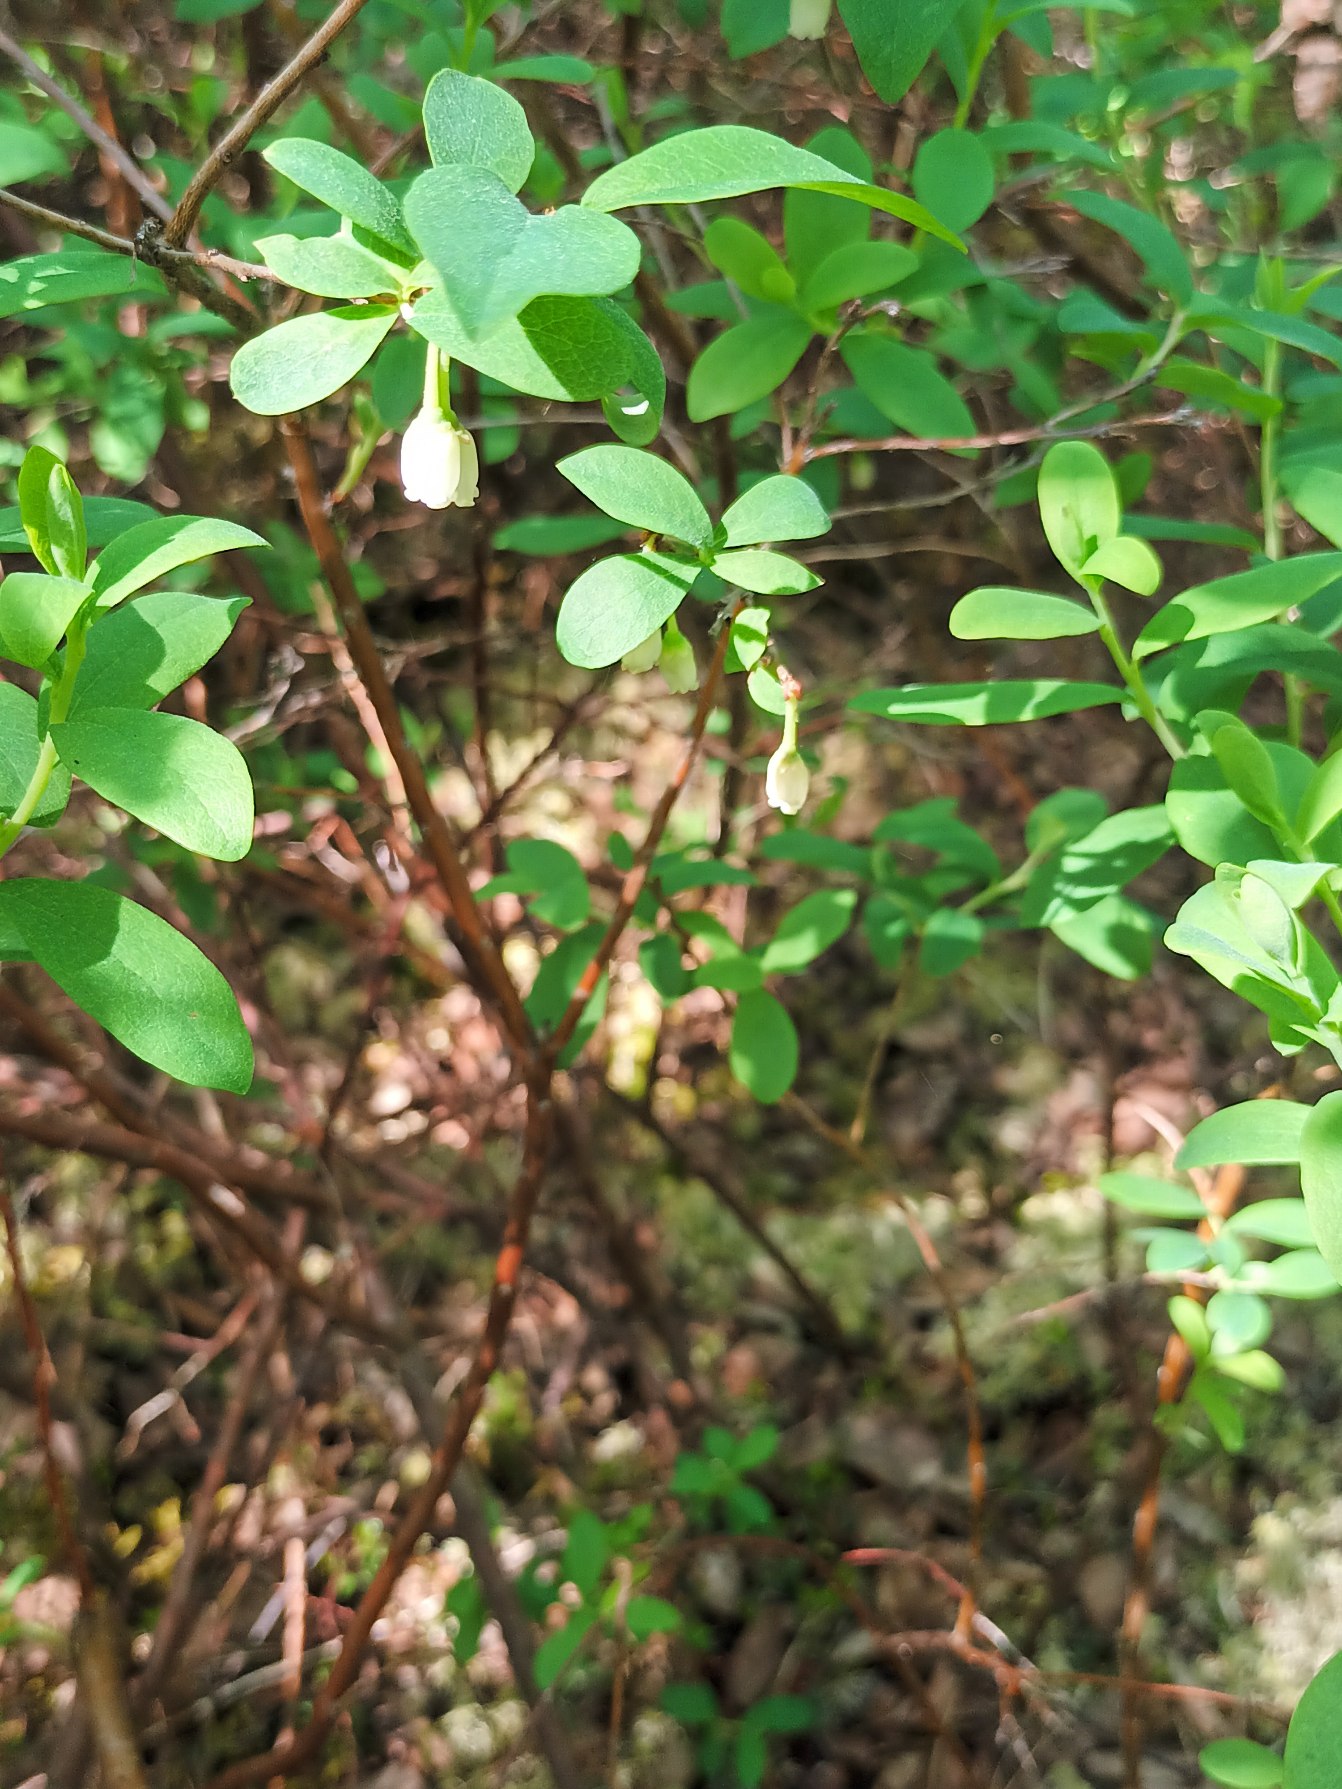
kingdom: Plantae
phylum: Tracheophyta
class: Magnoliopsida
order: Ericales
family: Ericaceae
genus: Vaccinium
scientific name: Vaccinium uliginosum
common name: Mose-bølle
